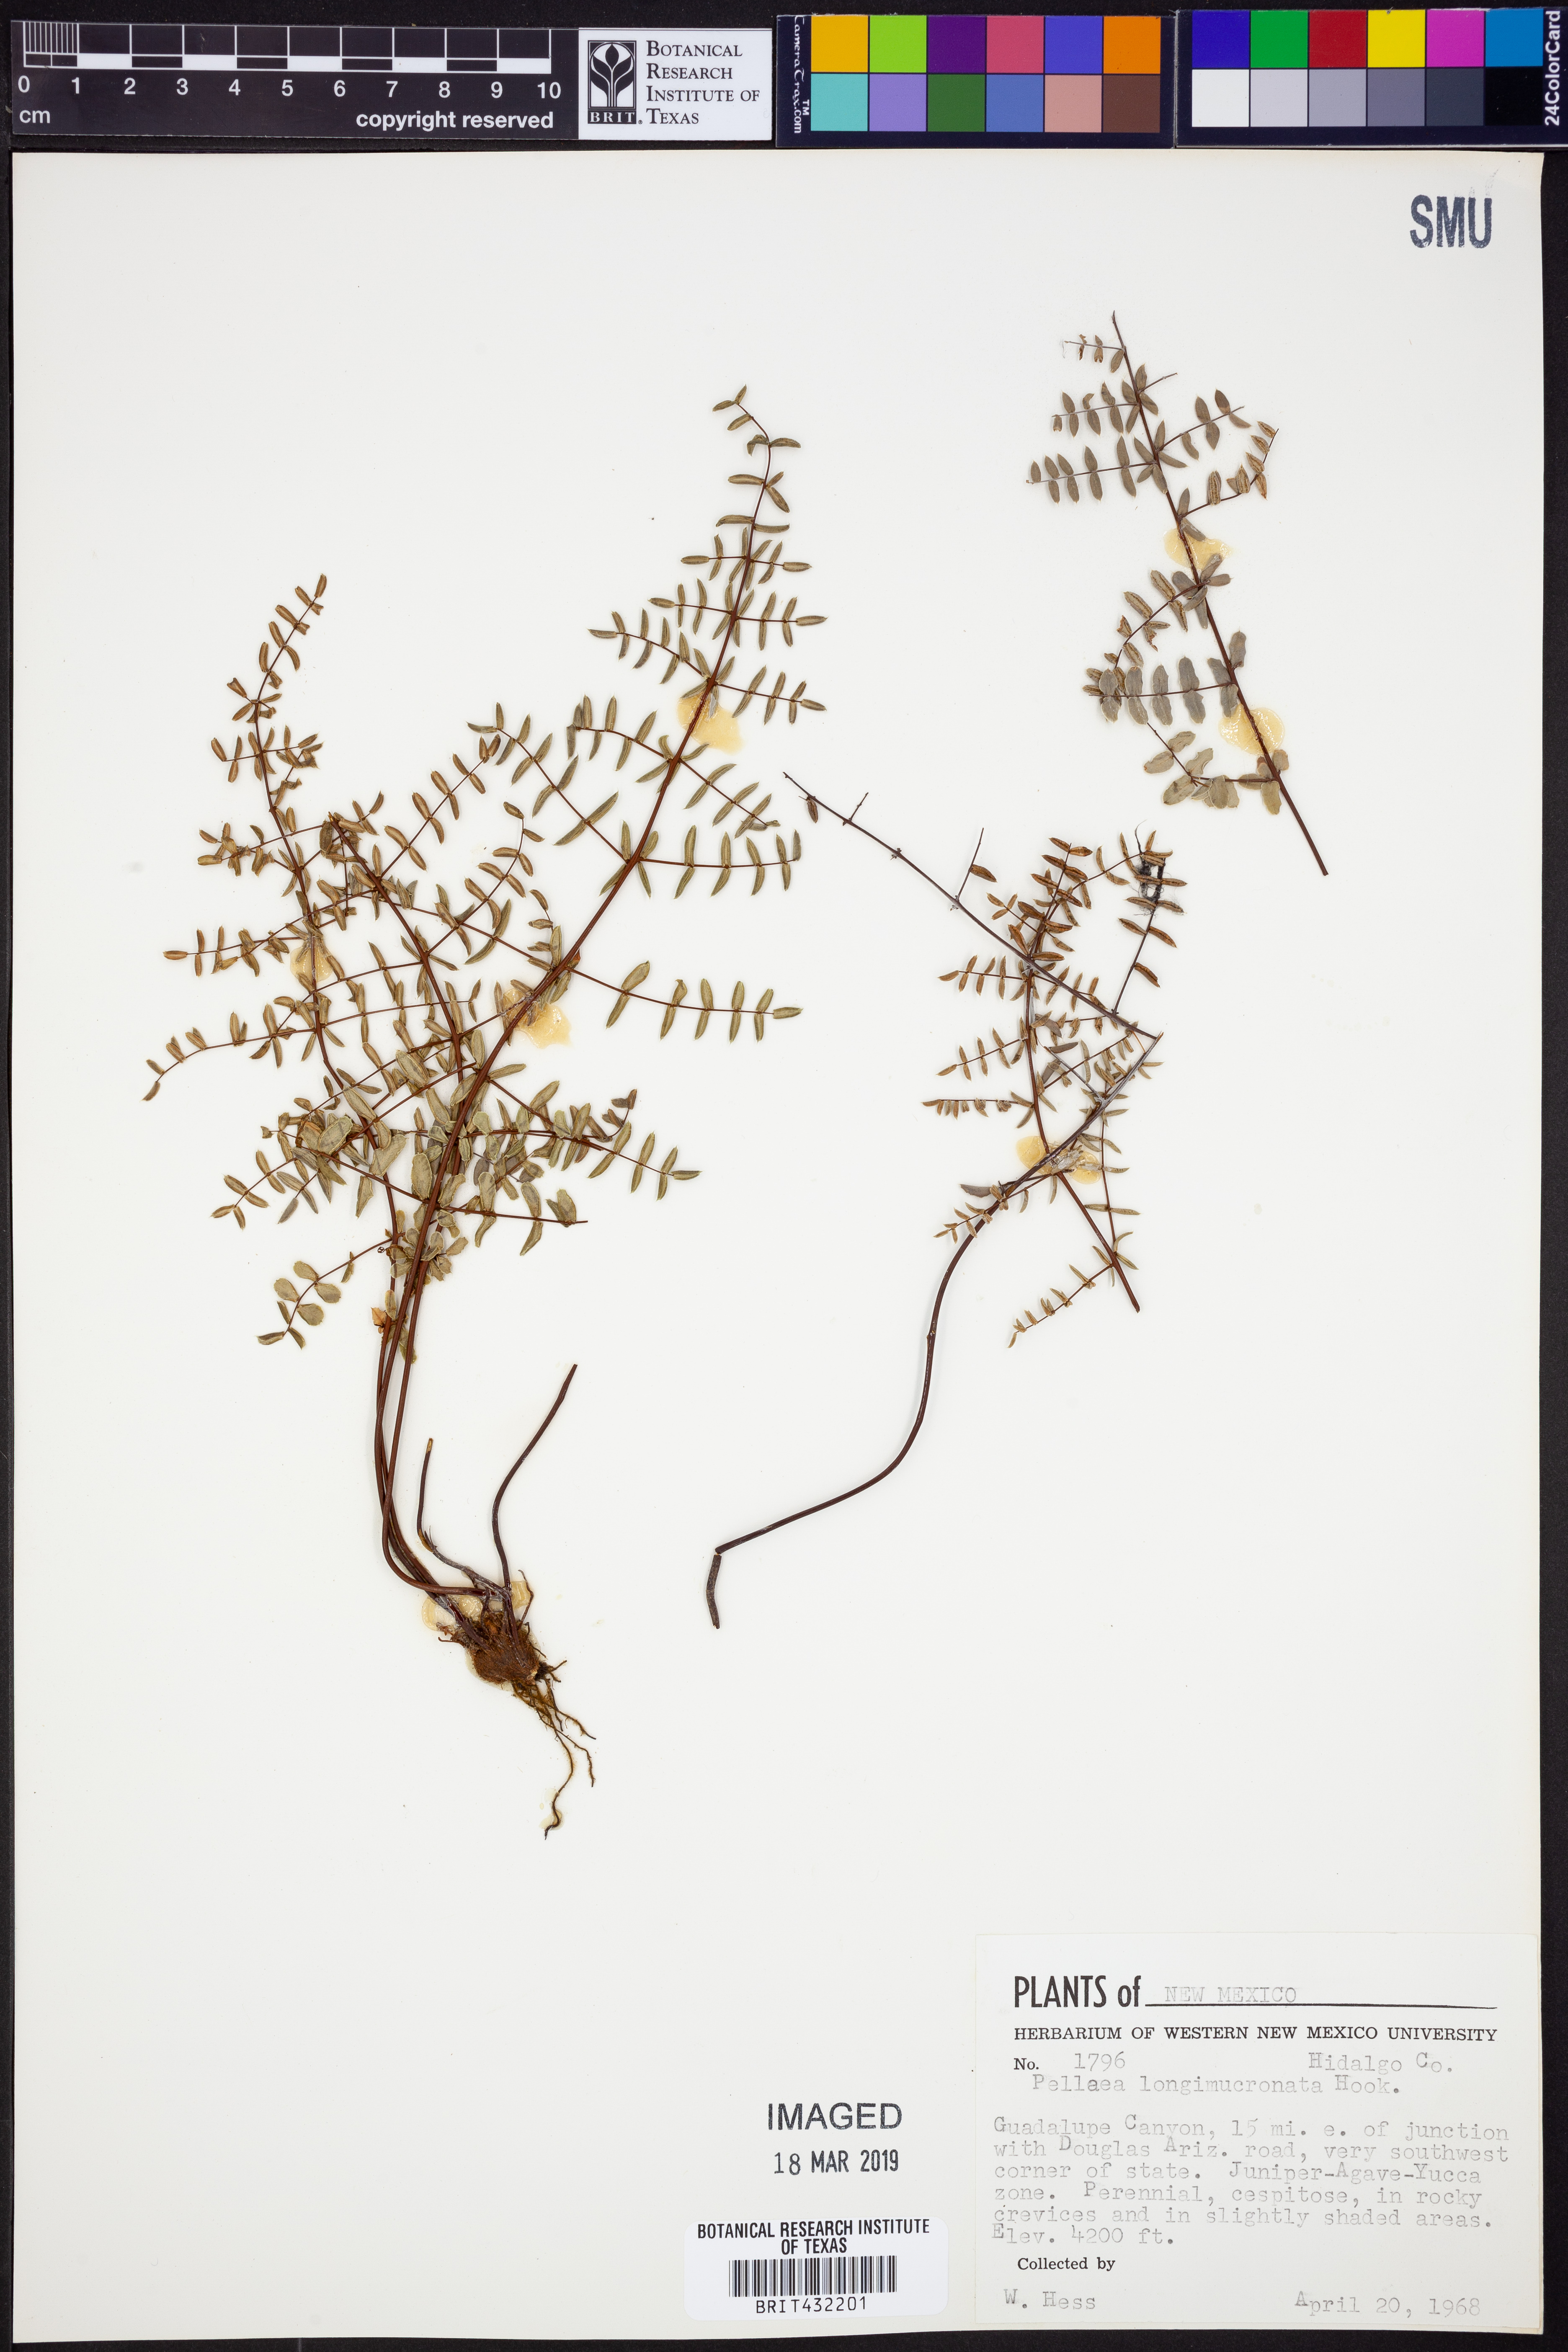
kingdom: Plantae
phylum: Tracheophyta
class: Polypodiopsida
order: Polypodiales
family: Pteridaceae
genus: Pellaea
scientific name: Pellaea mucronata
